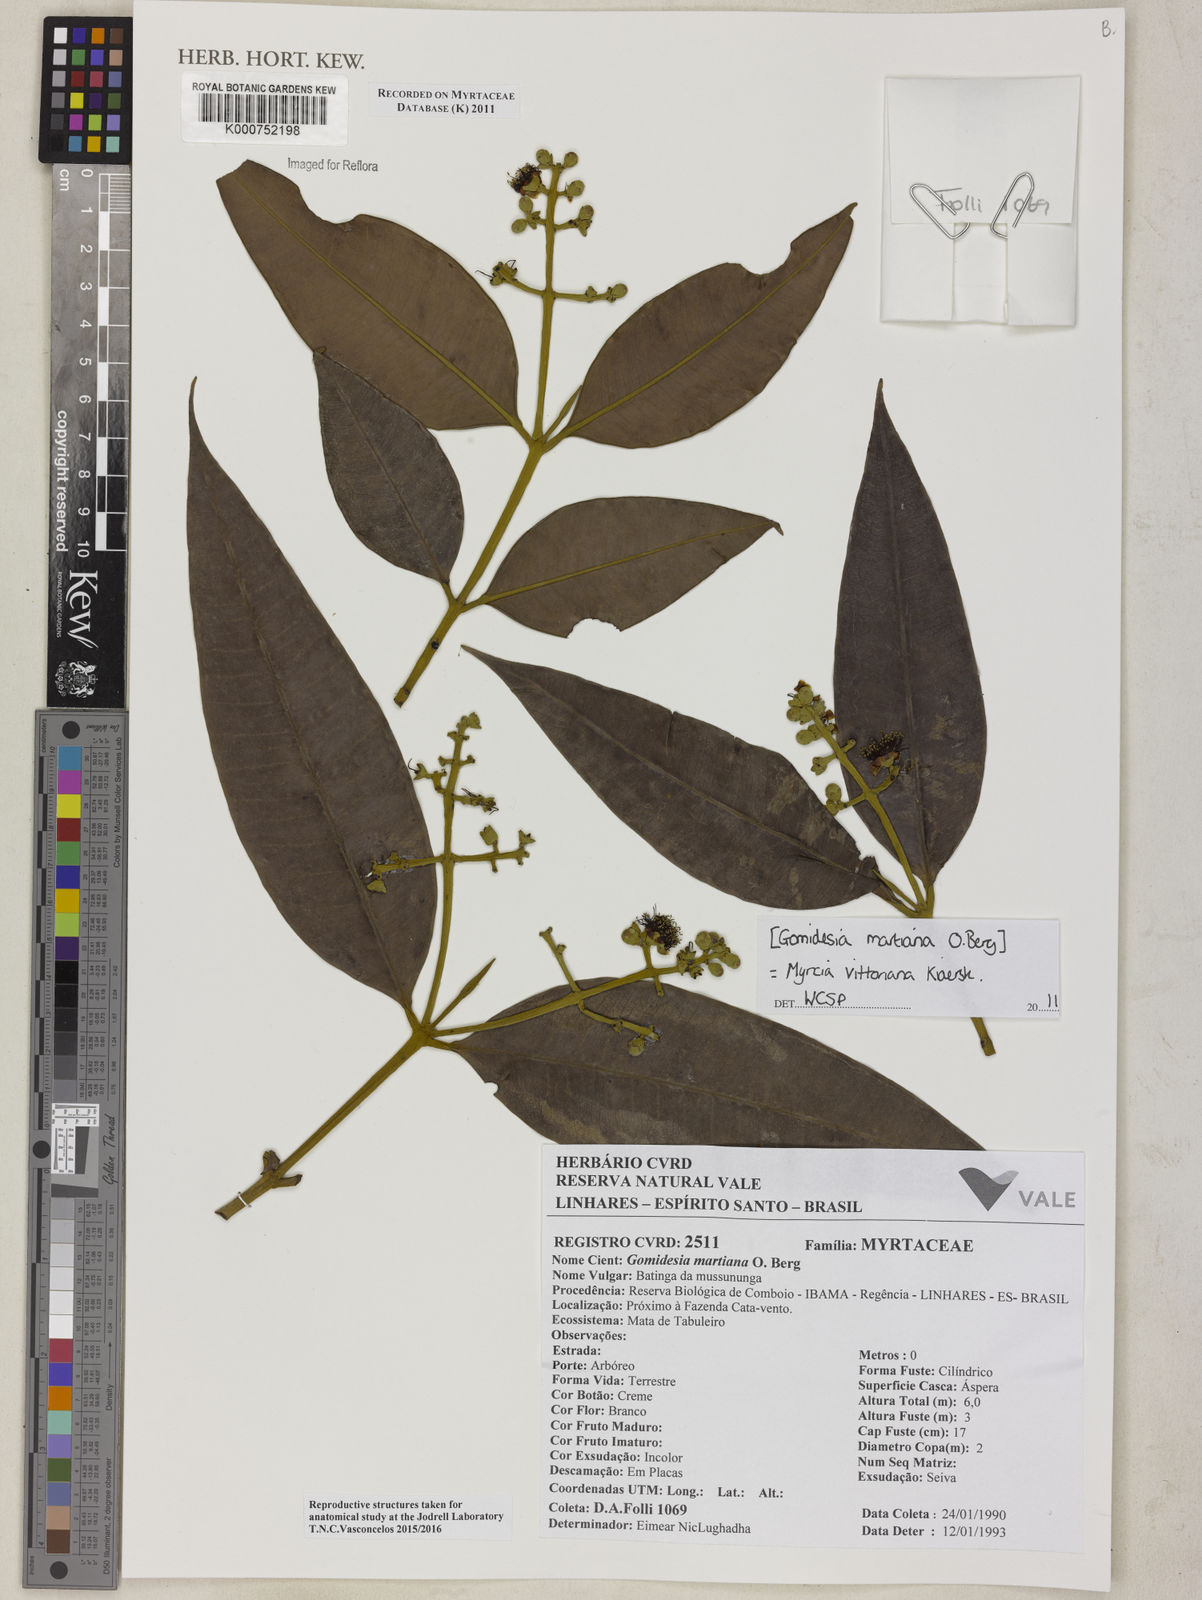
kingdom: Plantae
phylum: Tracheophyta
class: Magnoliopsida
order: Myrtales
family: Myrtaceae
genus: Myrcia
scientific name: Myrcia vittoriana
